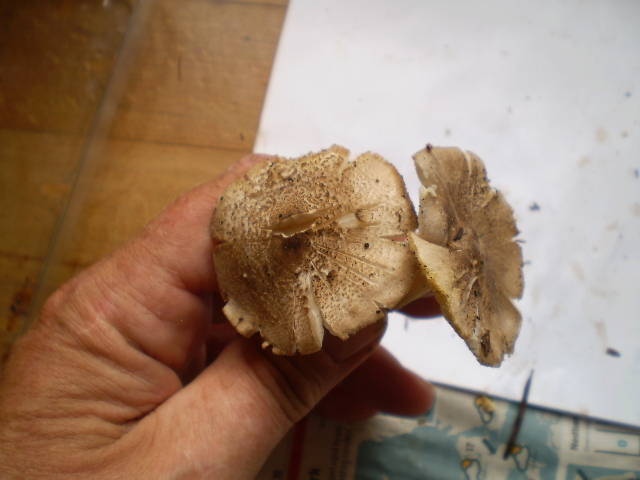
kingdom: Fungi
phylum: Basidiomycota
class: Agaricomycetes
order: Agaricales
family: Tricholomataceae
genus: Tricholoma
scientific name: Tricholoma scalpturatum
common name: gulplettet ridderhat
